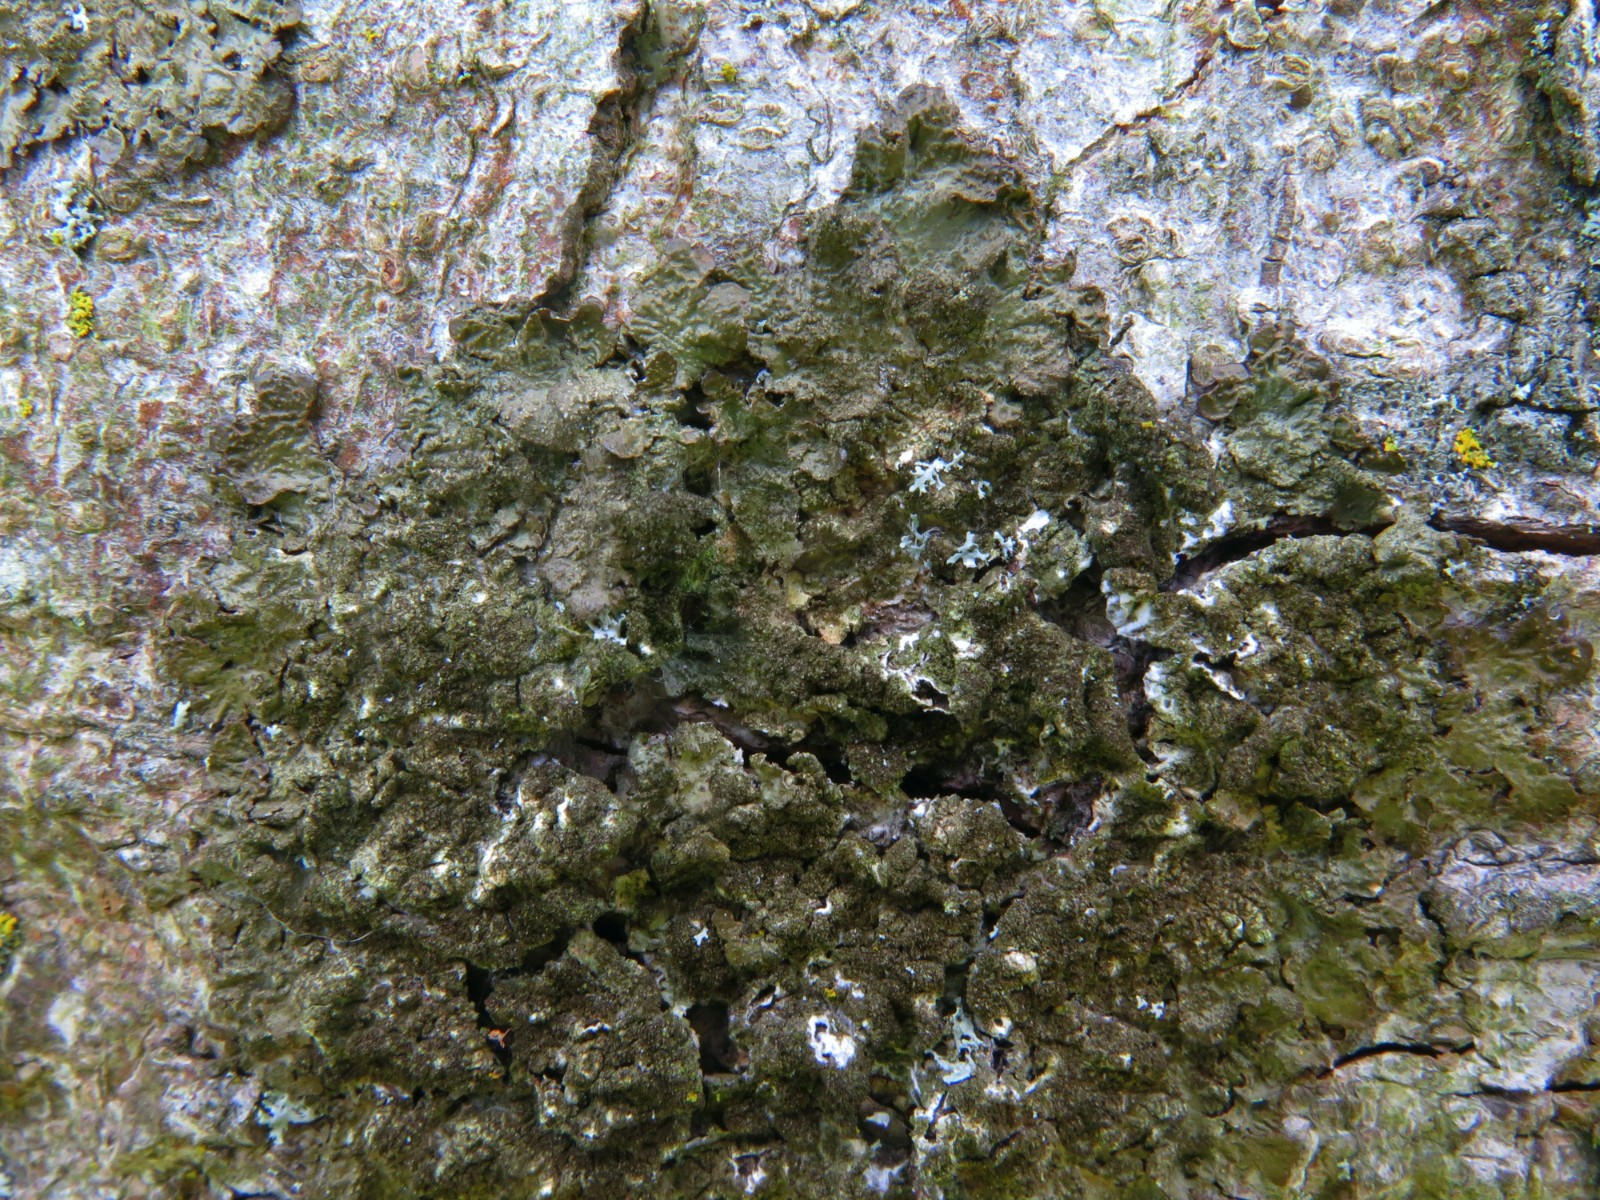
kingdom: Fungi
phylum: Ascomycota
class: Lecanoromycetes
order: Lecanorales
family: Parmeliaceae
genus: Melanelixia
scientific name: Melanelixia subaurifera
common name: guldpudret skållav
